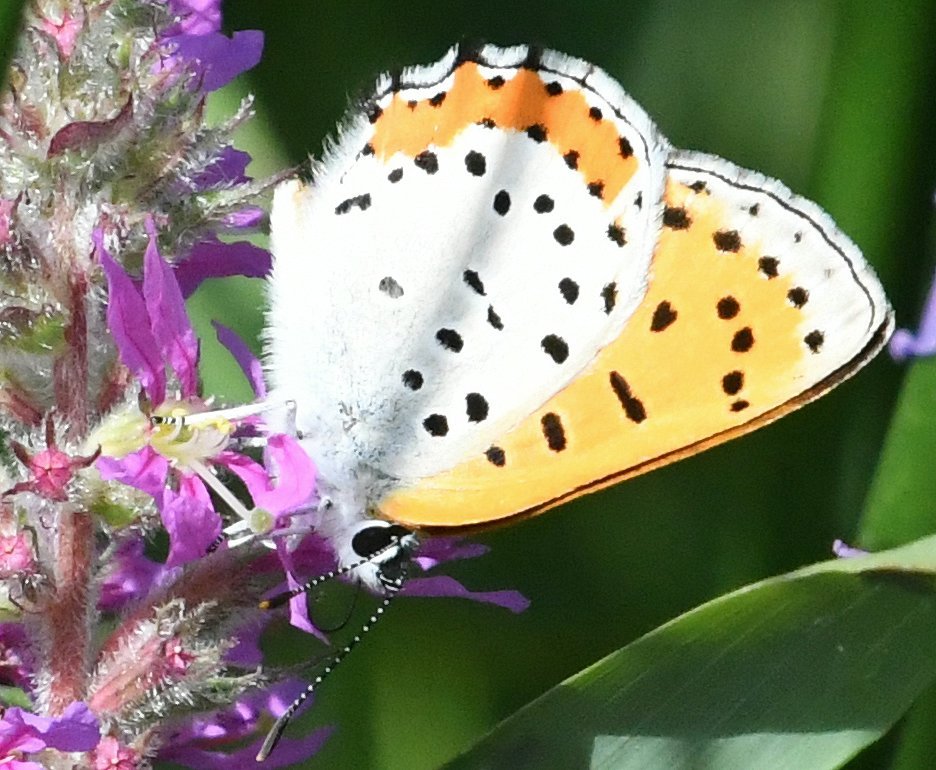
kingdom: Animalia
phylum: Arthropoda
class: Insecta
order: Lepidoptera
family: Sesiidae
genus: Sesia
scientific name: Sesia Lycaena hyllus
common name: Bronze Copper
